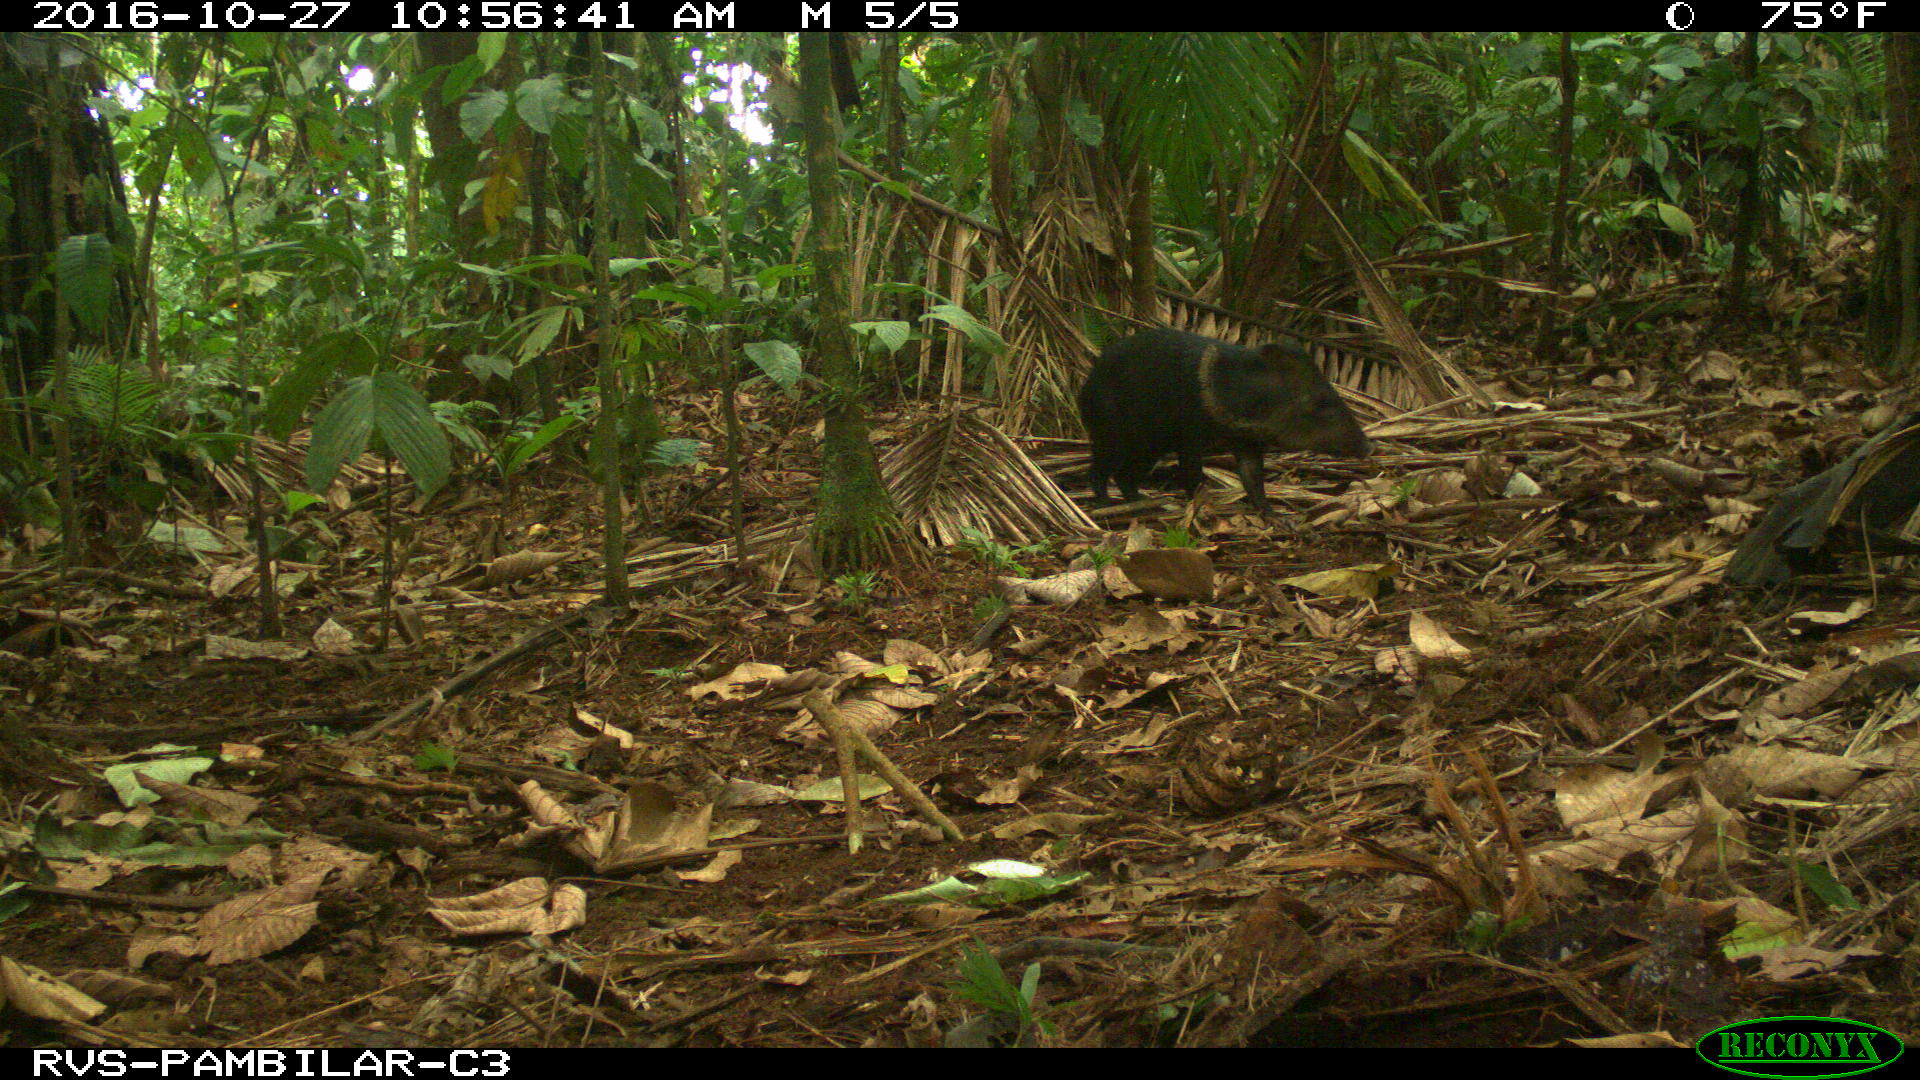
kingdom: Animalia
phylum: Chordata
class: Mammalia
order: Artiodactyla
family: Tayassuidae
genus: Pecari
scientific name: Pecari tajacu
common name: Collared peccary
